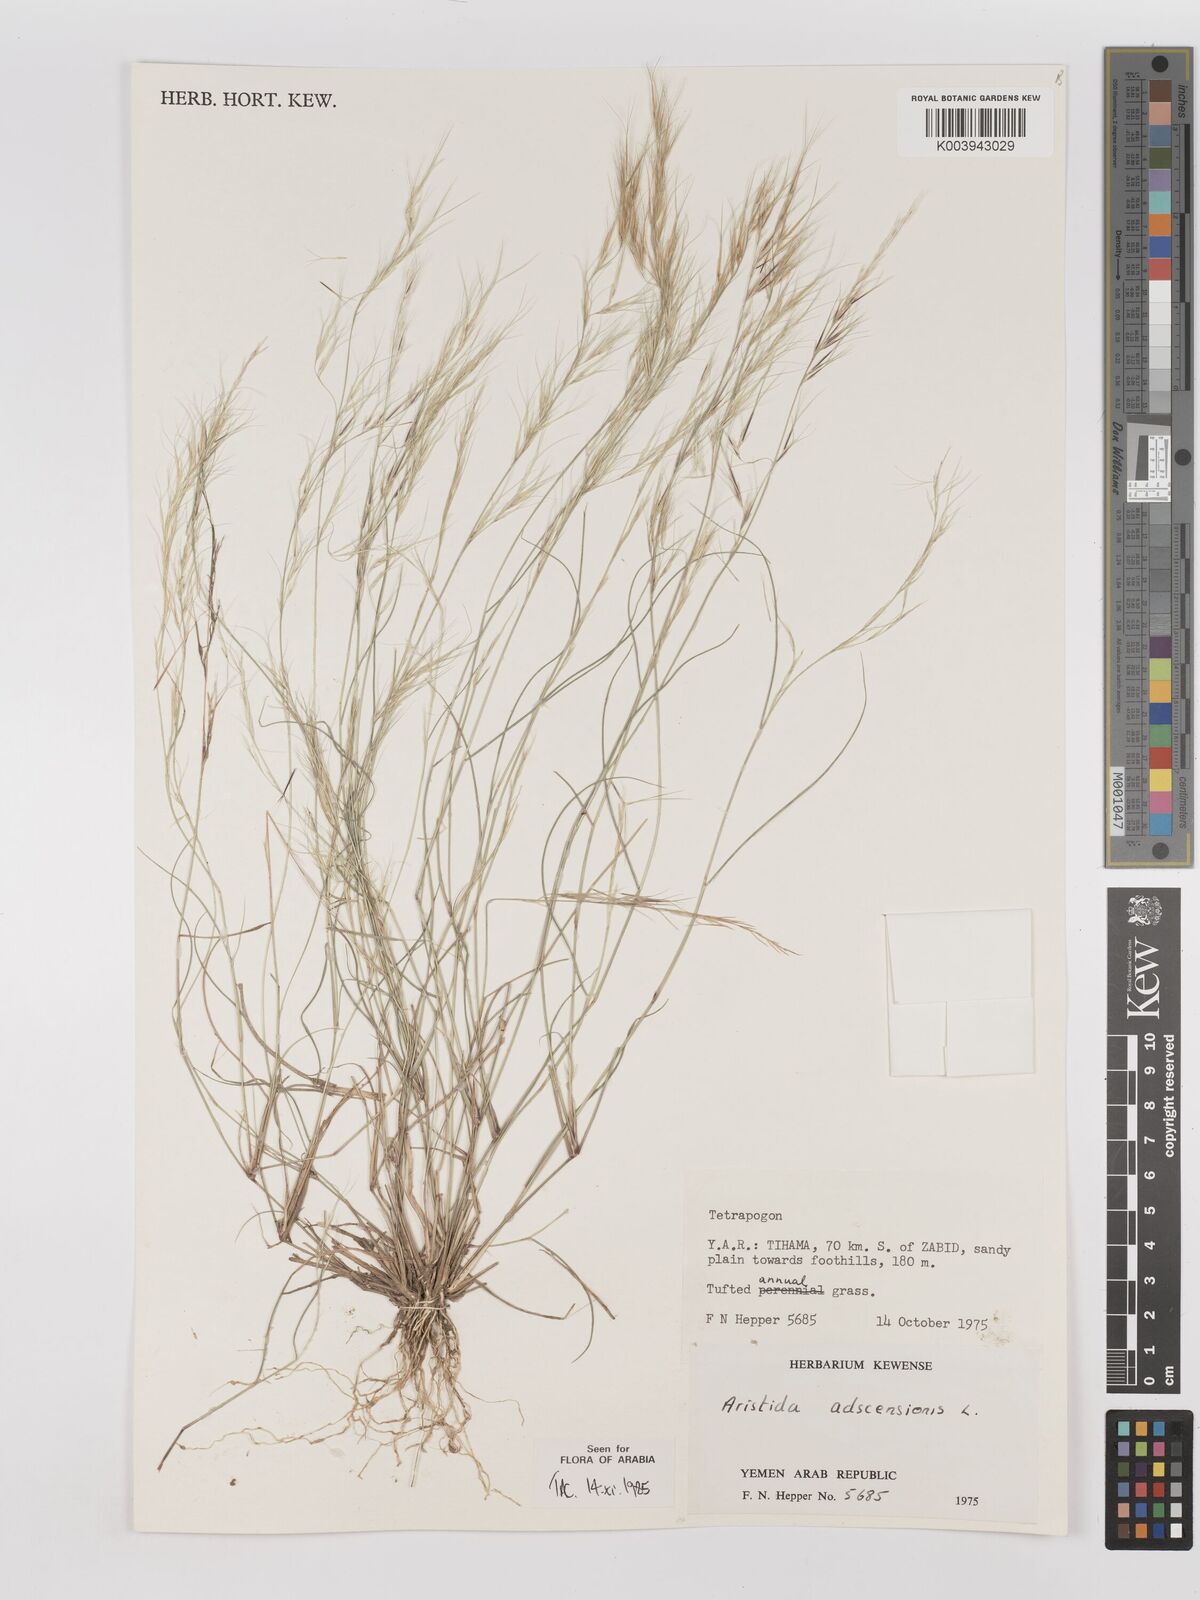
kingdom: Plantae
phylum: Tracheophyta
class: Liliopsida
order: Poales
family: Poaceae
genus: Aristida
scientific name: Aristida adscensionis
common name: Sixweeks threeawn
